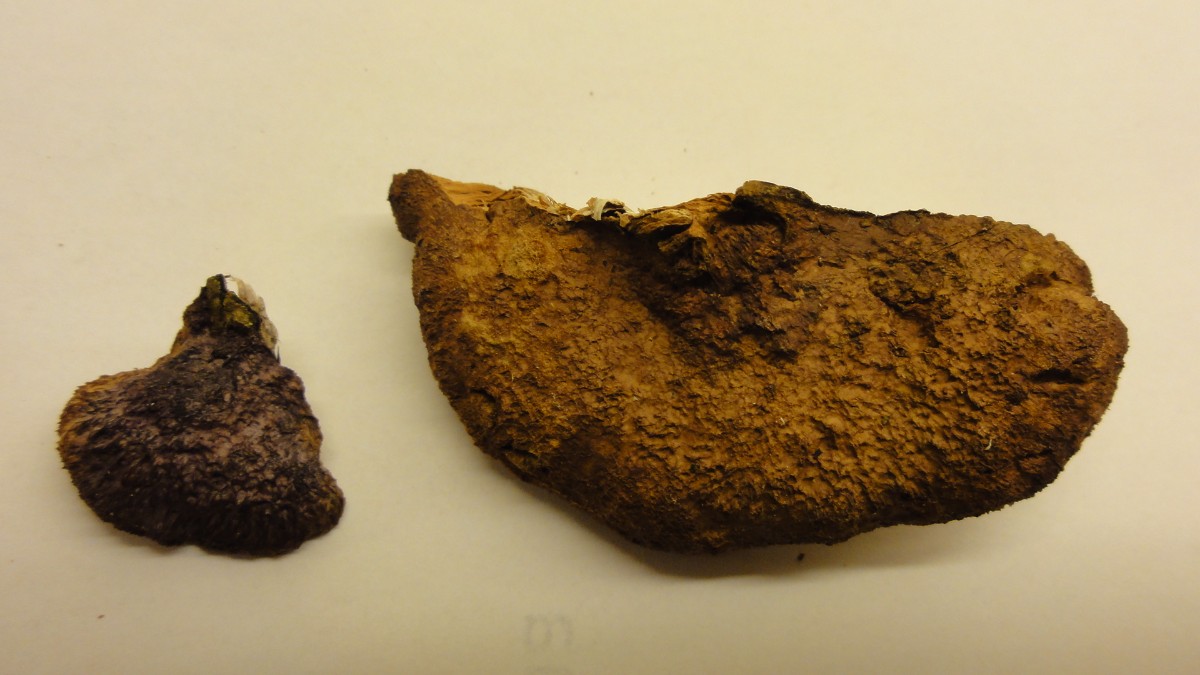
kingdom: Fungi
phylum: Basidiomycota
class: Agaricomycetes
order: Polyporales
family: Phanerochaetaceae
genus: Hapalopilus
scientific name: Hapalopilus rutilans
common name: rødlig okkerporesvamp
